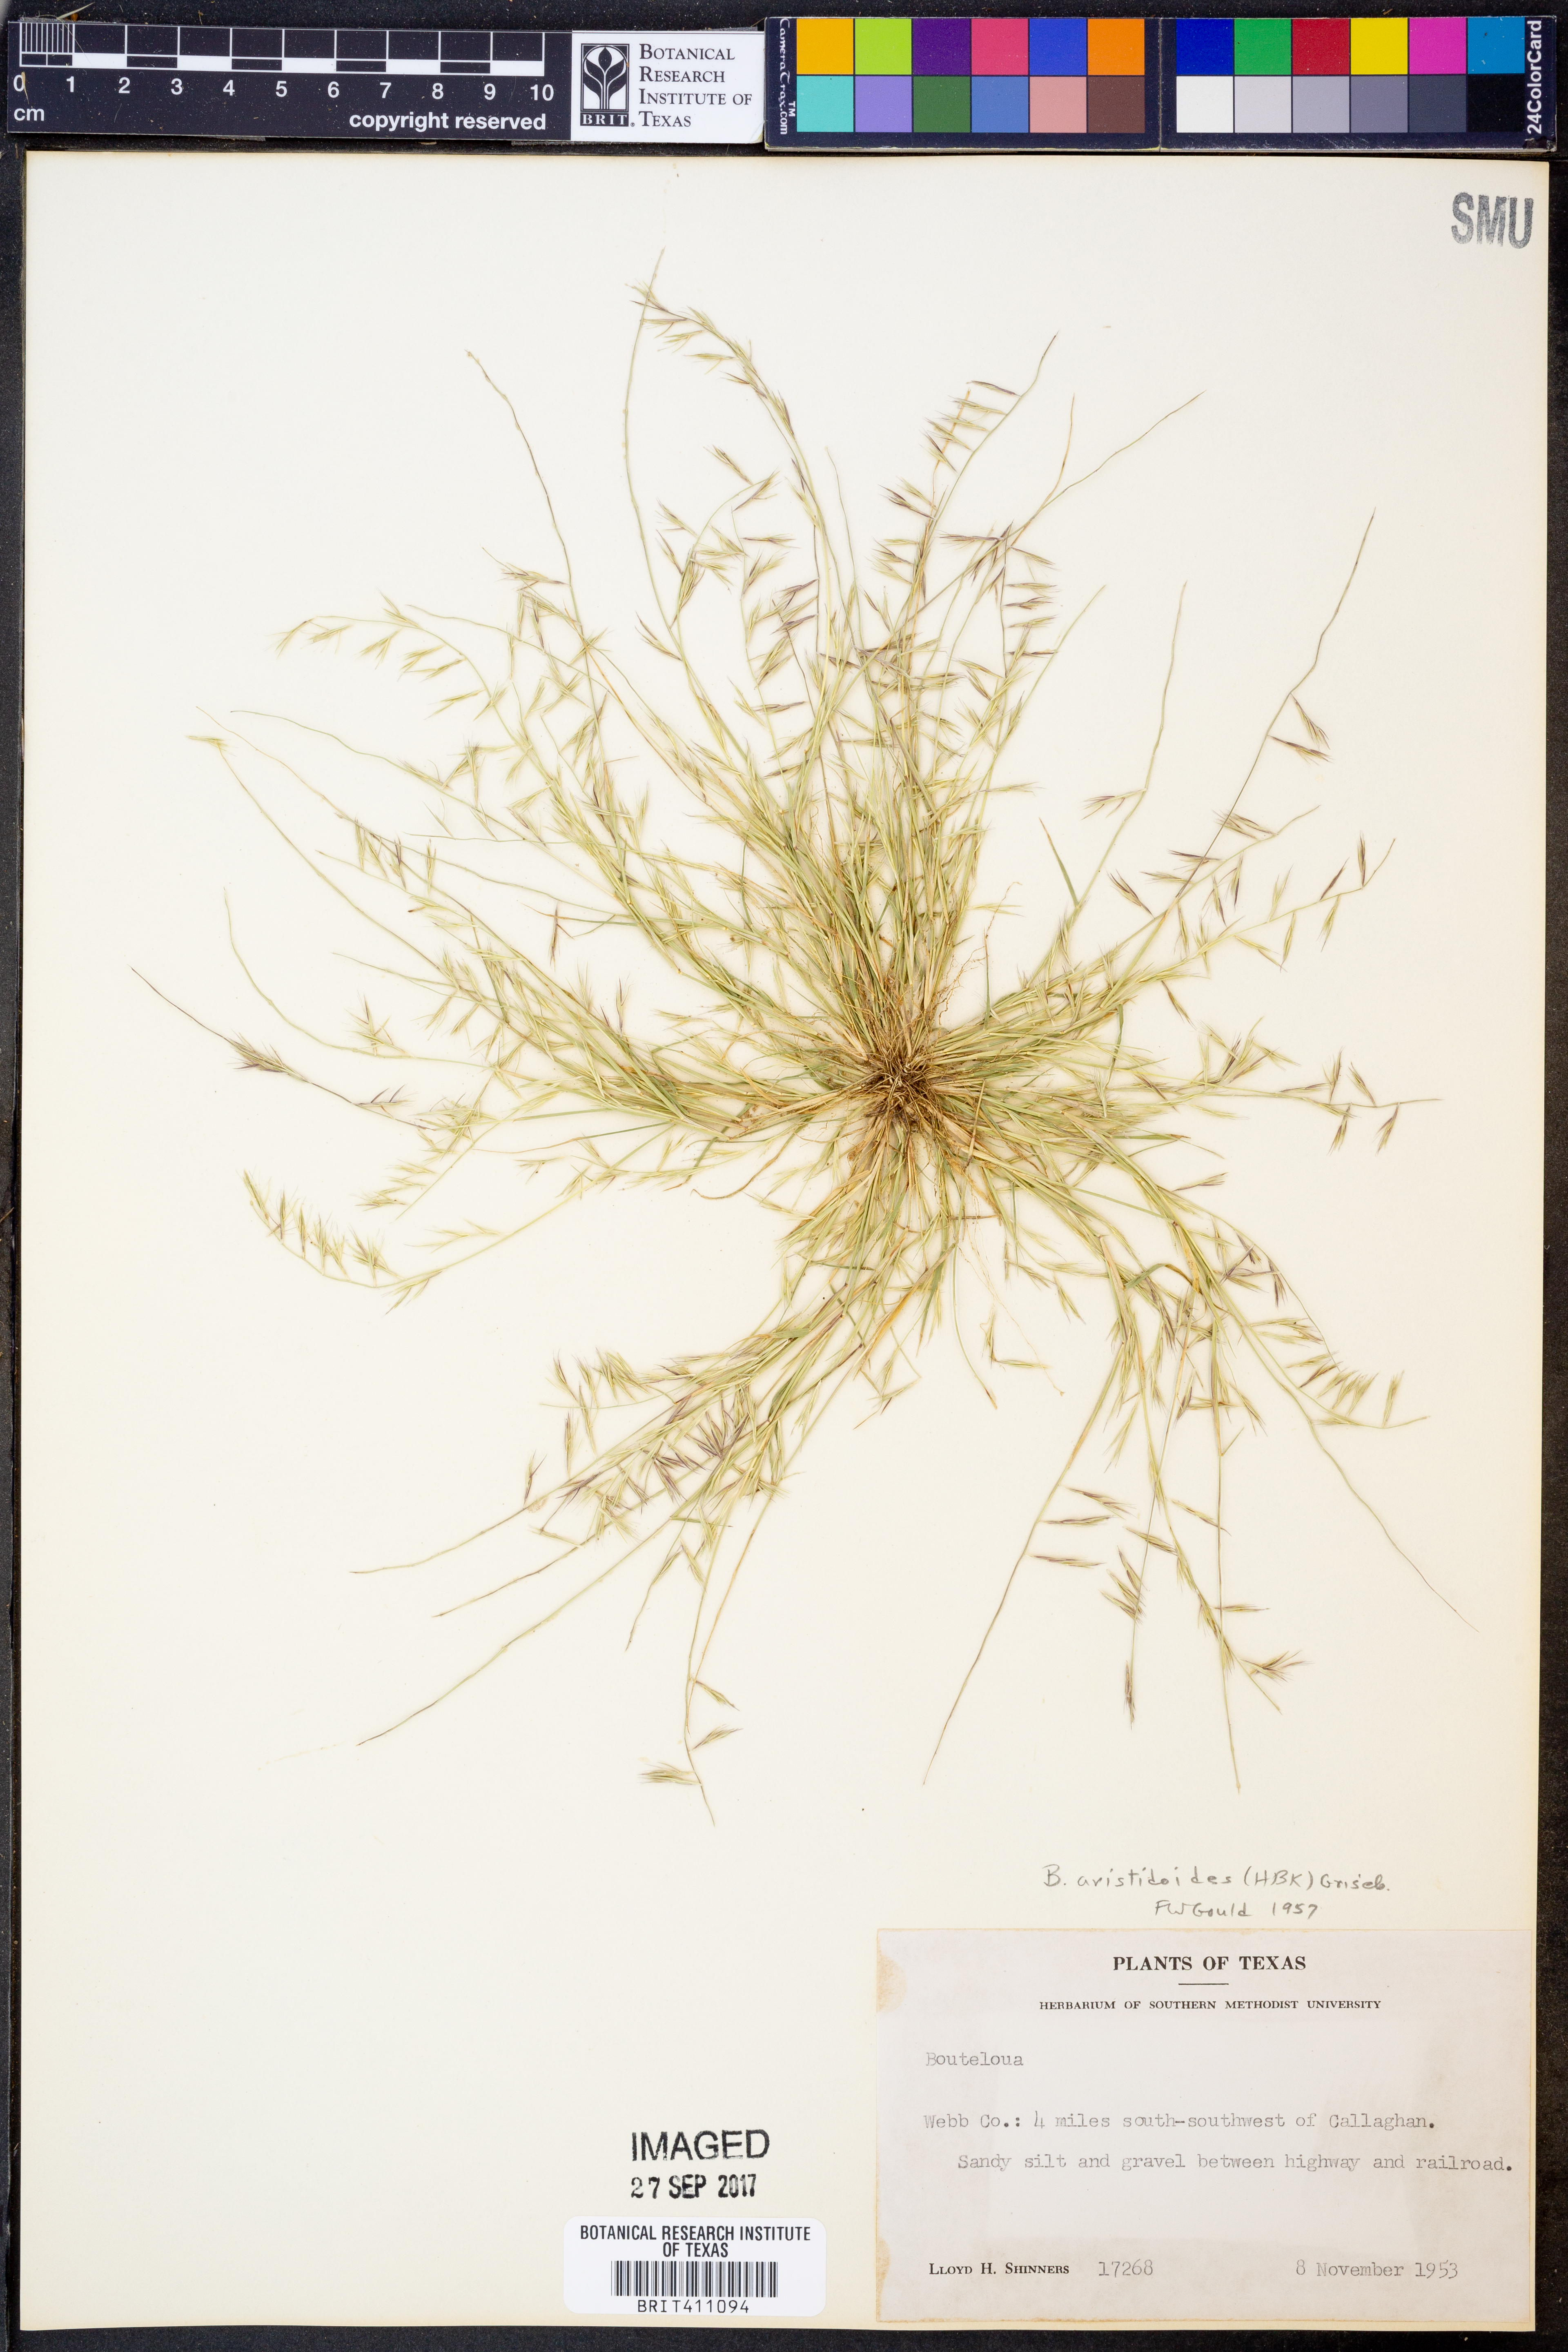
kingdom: Plantae
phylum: Tracheophyta
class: Liliopsida
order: Poales
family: Poaceae
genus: Bouteloua
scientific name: Bouteloua aristidoides
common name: Needle grama
